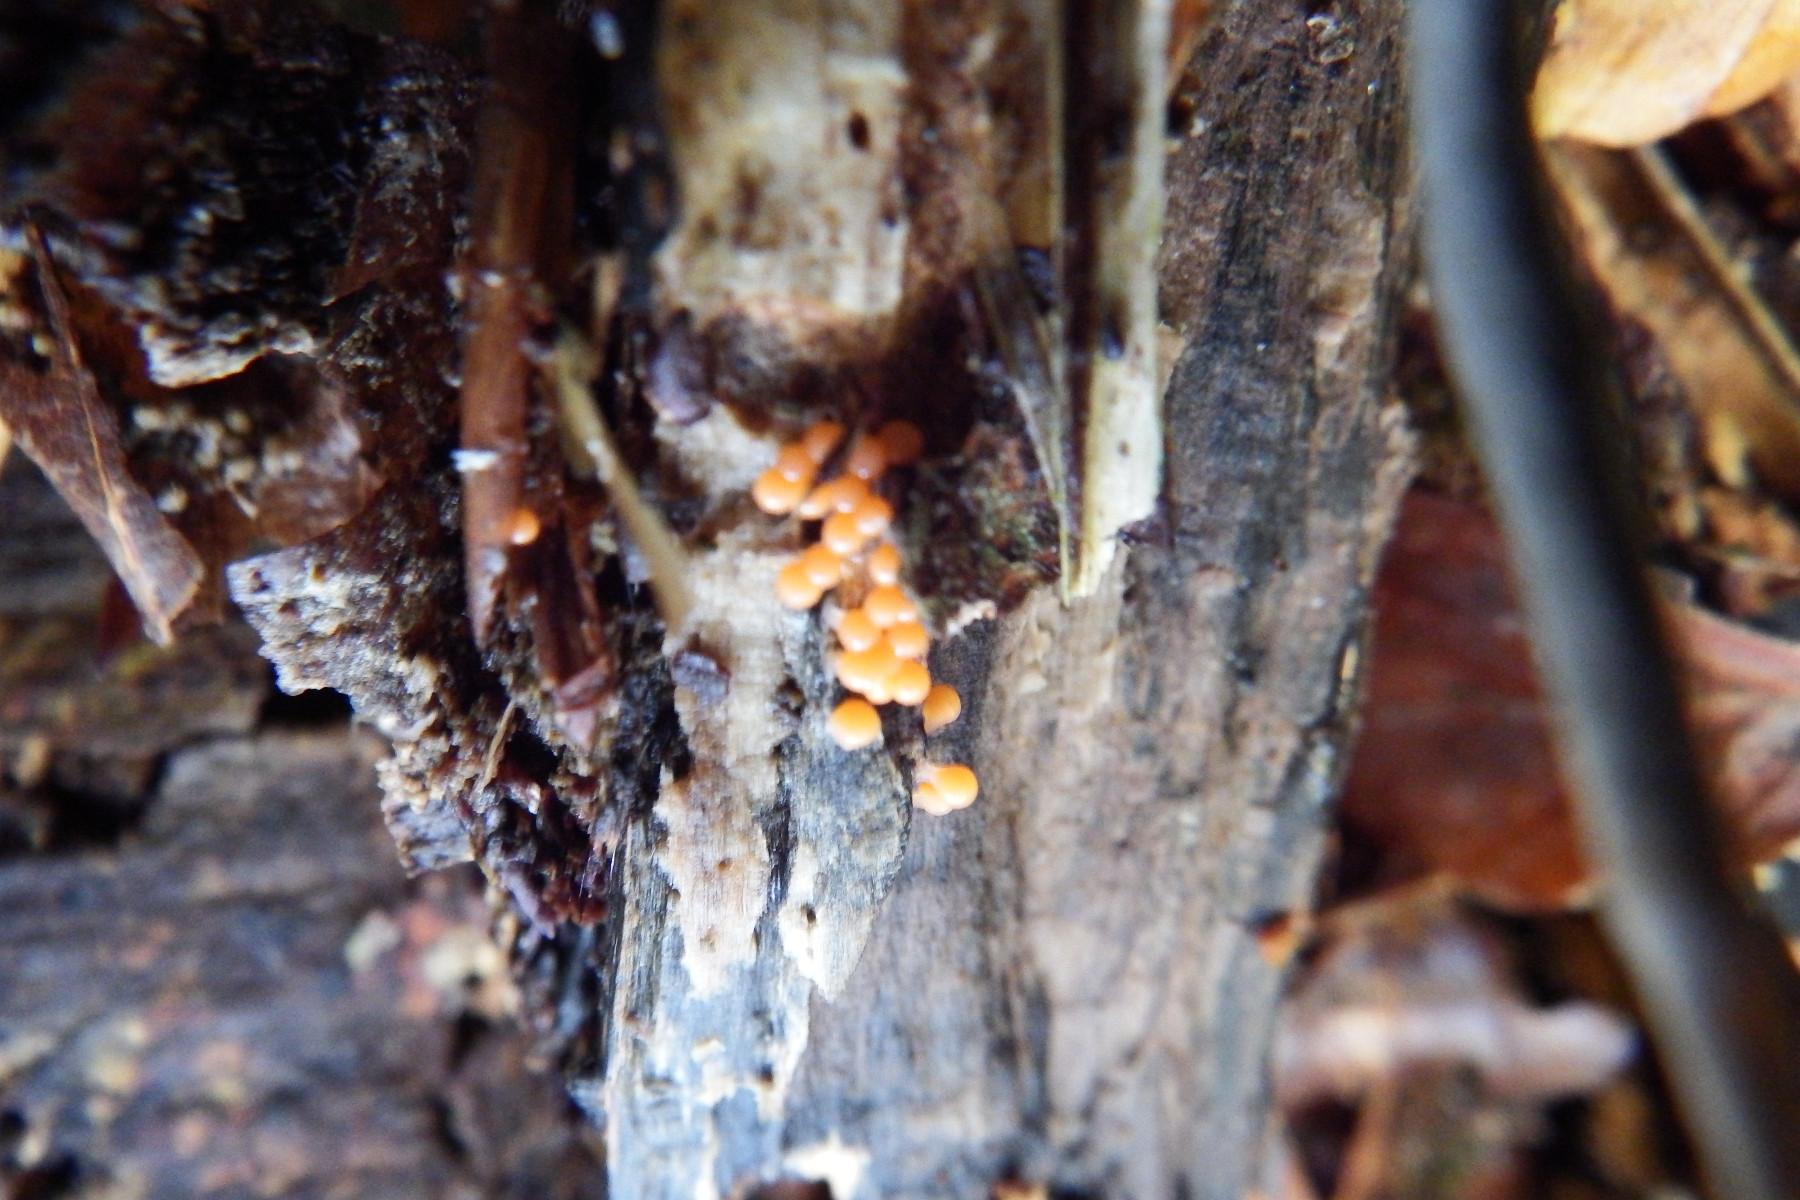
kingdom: Protozoa
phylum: Mycetozoa
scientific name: Mycetozoa
